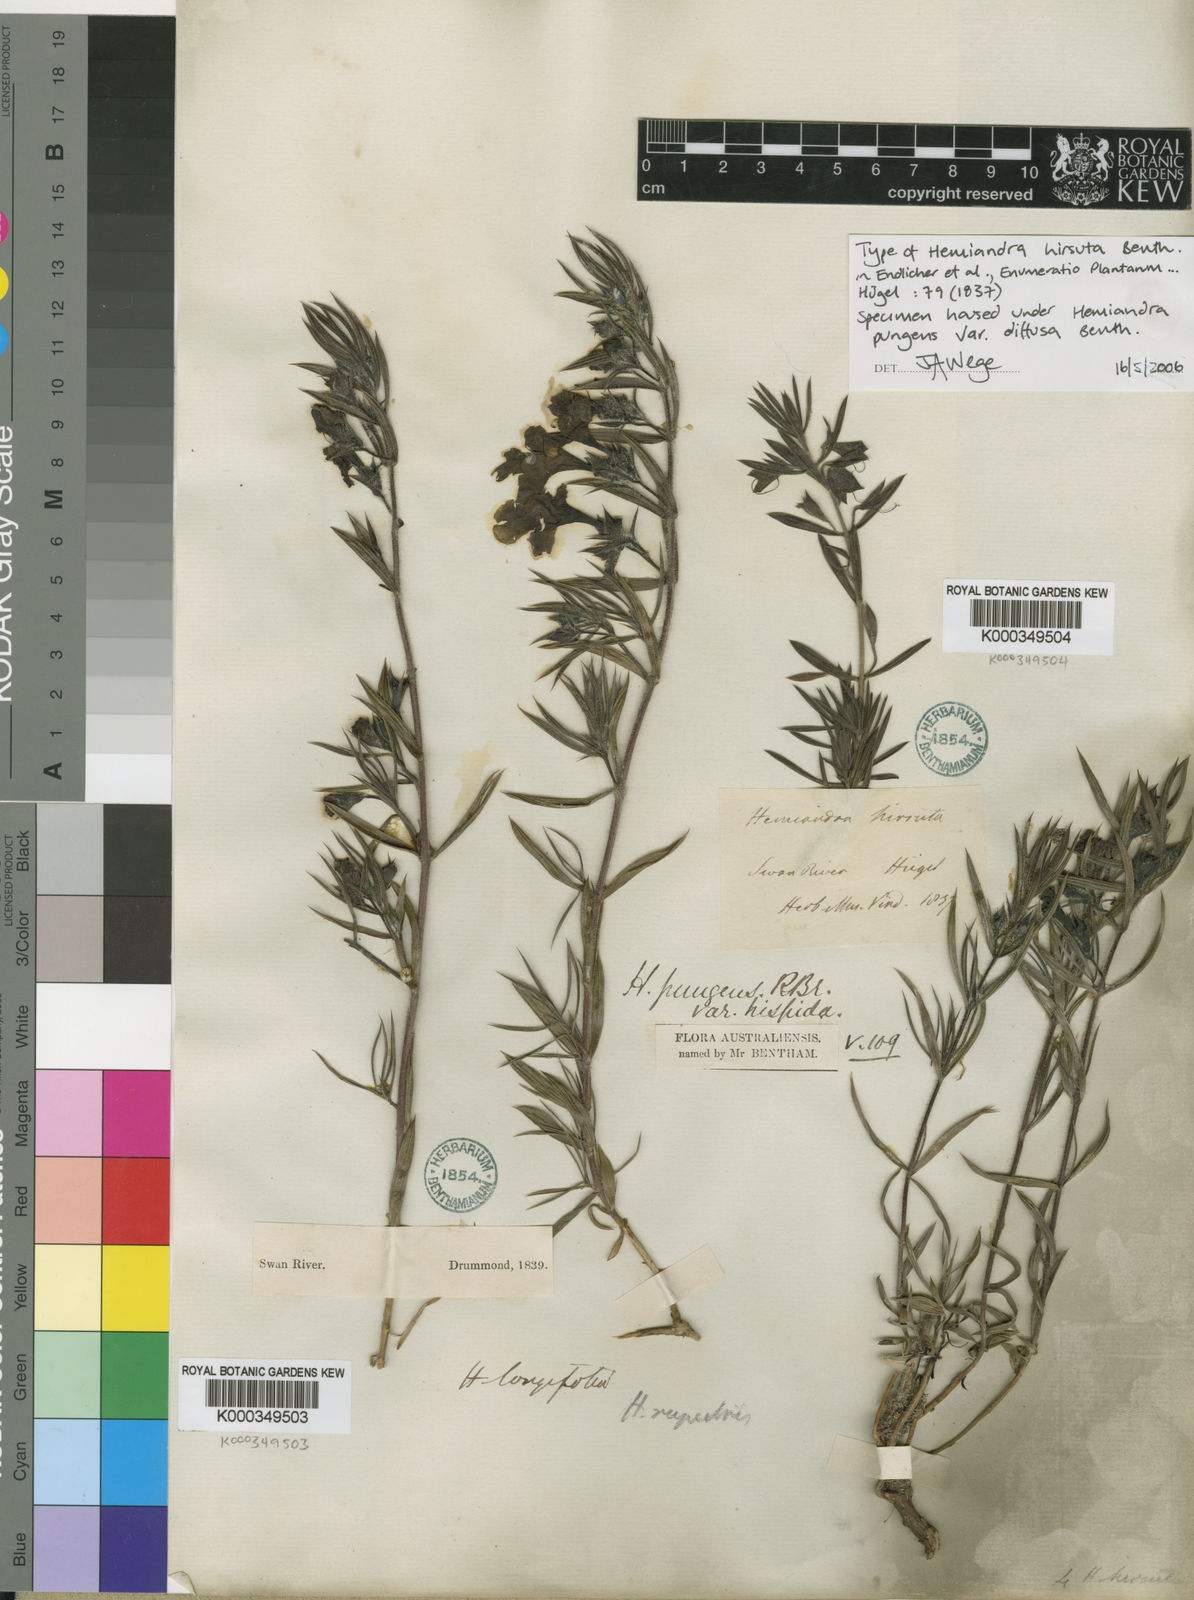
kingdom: Plantae
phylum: Tracheophyta
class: Magnoliopsida
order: Lamiales
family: Lamiaceae
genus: Hemiandra
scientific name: Hemiandra pungens
